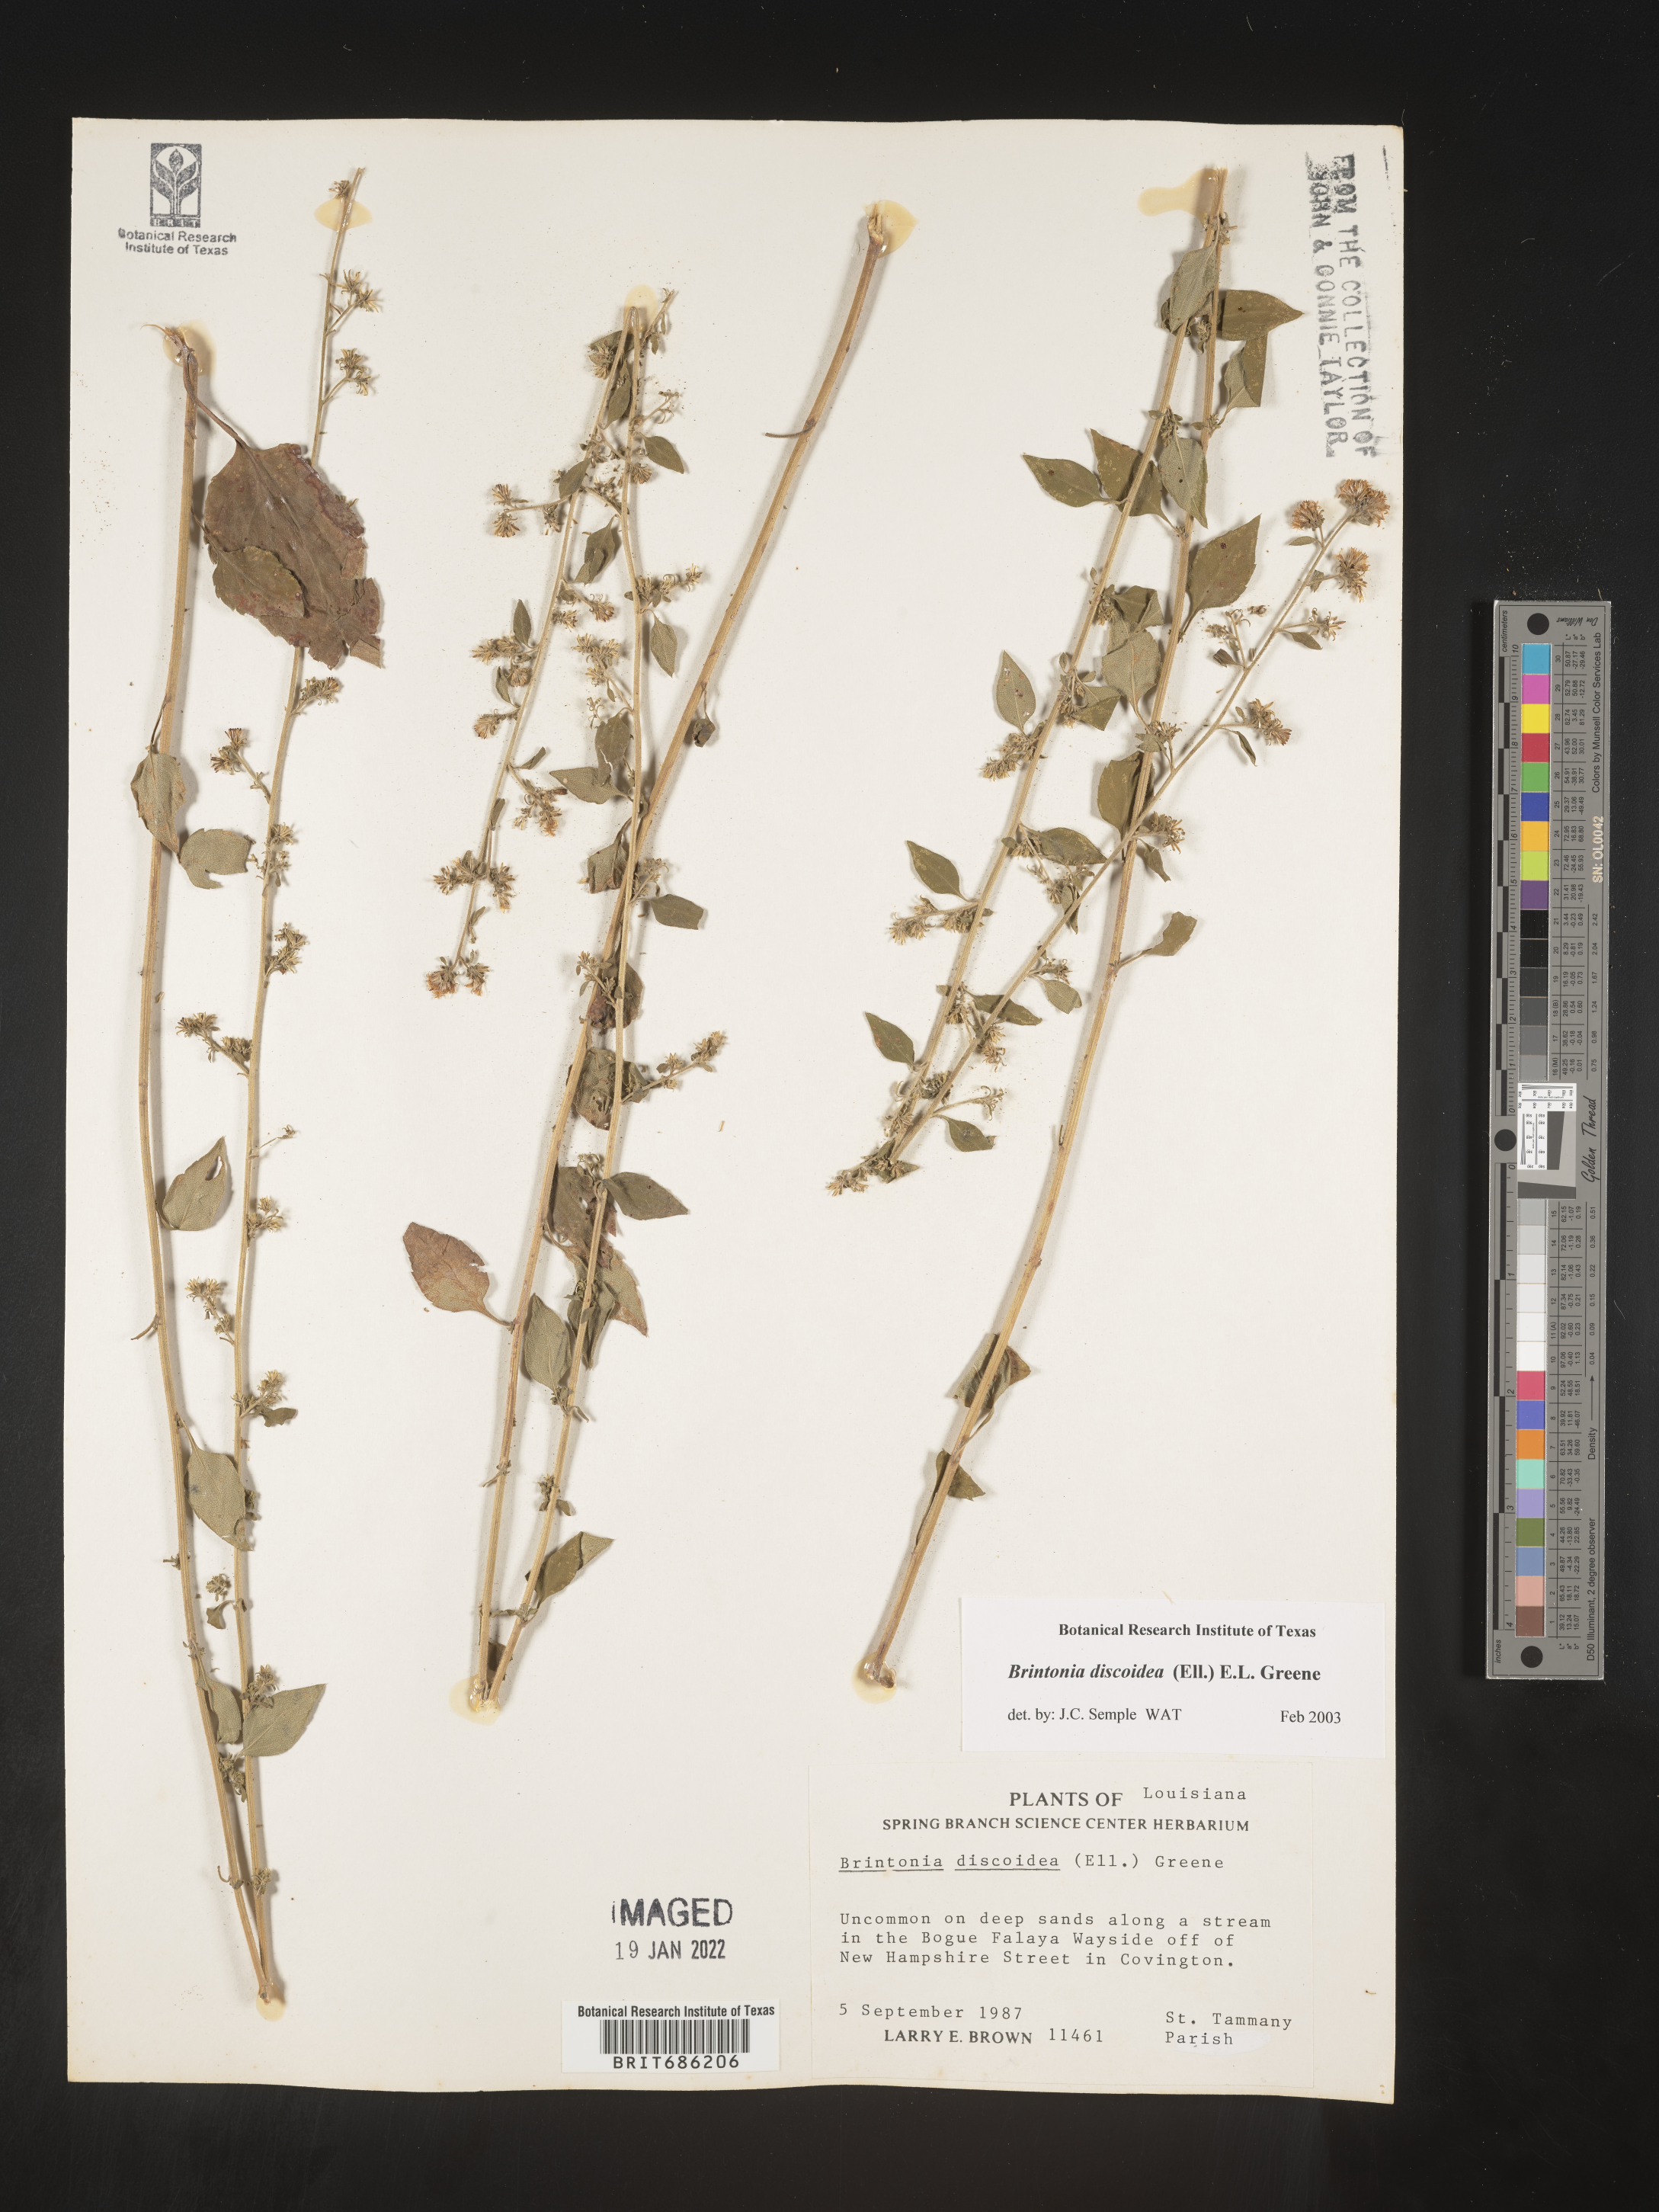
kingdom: Plantae
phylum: Tracheophyta
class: Magnoliopsida
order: Asterales
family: Asteraceae
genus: Solidago
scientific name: Solidago discoidea
